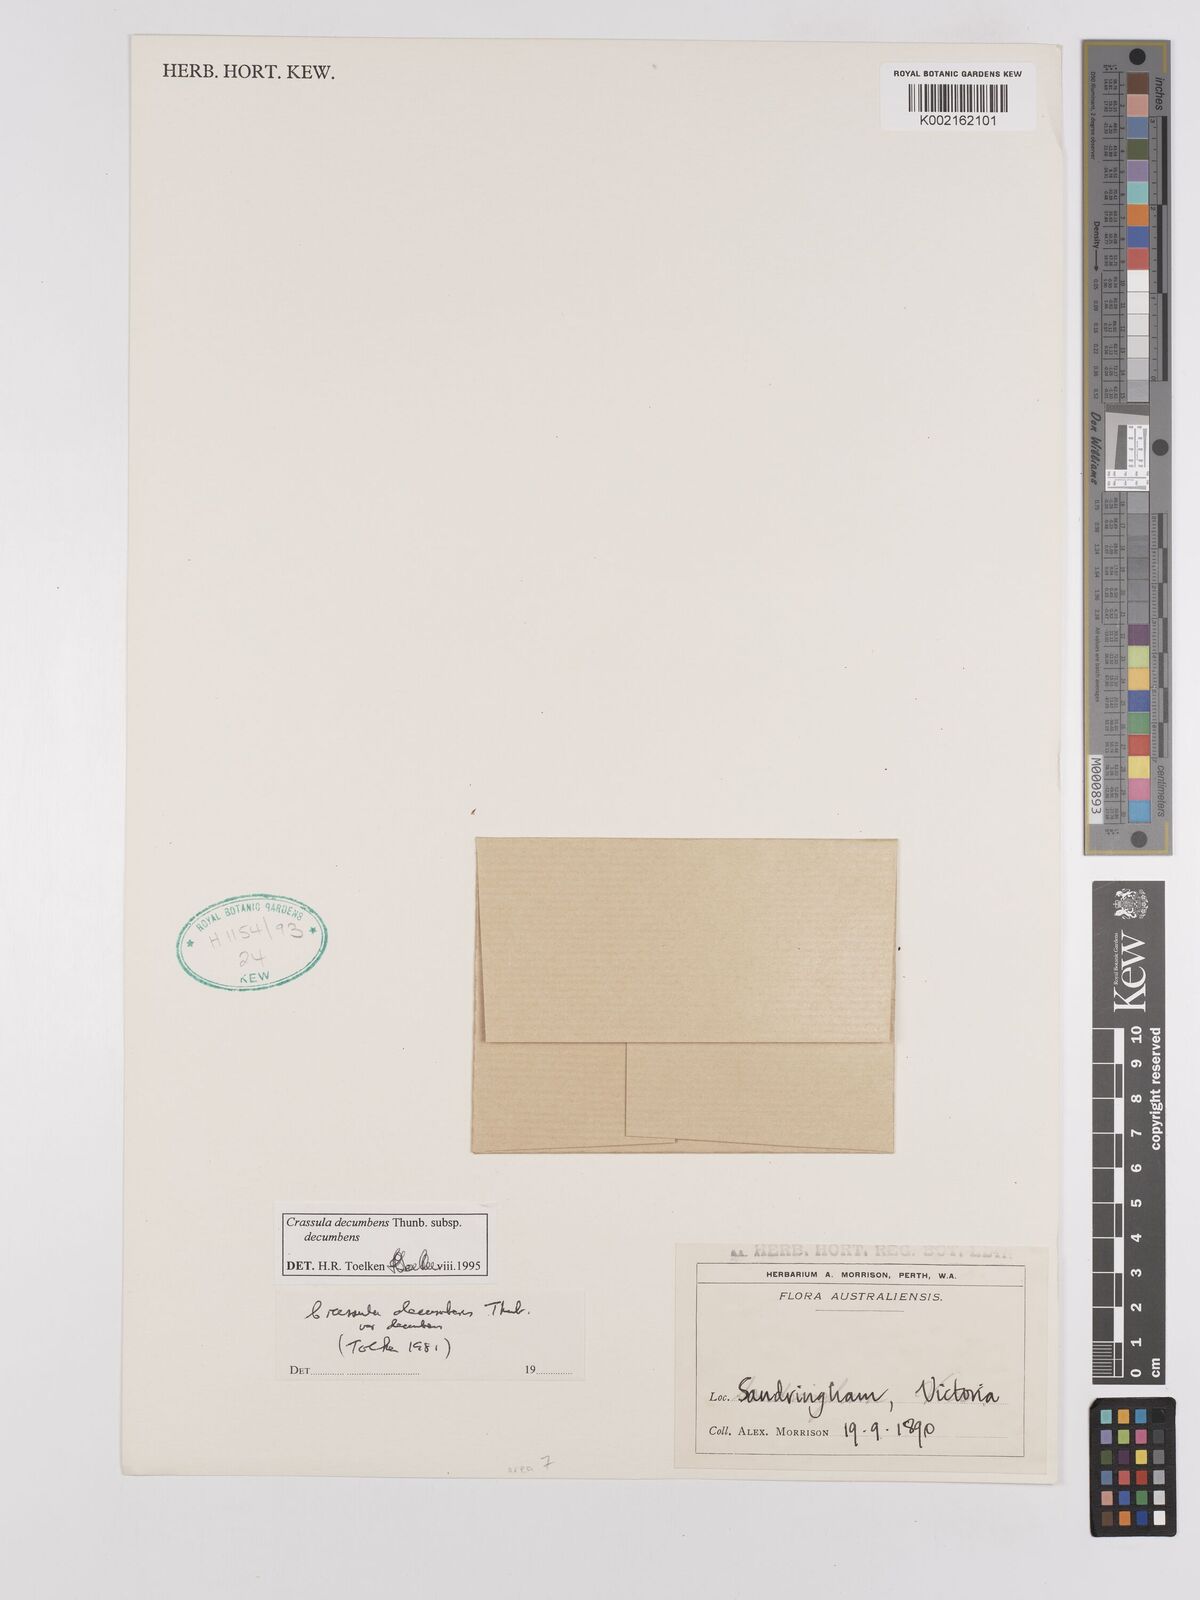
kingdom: Plantae
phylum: Tracheophyta
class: Magnoliopsida
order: Saxifragales
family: Crassulaceae
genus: Crassula
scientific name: Crassula decumbens
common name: Scilly pigmyweed
